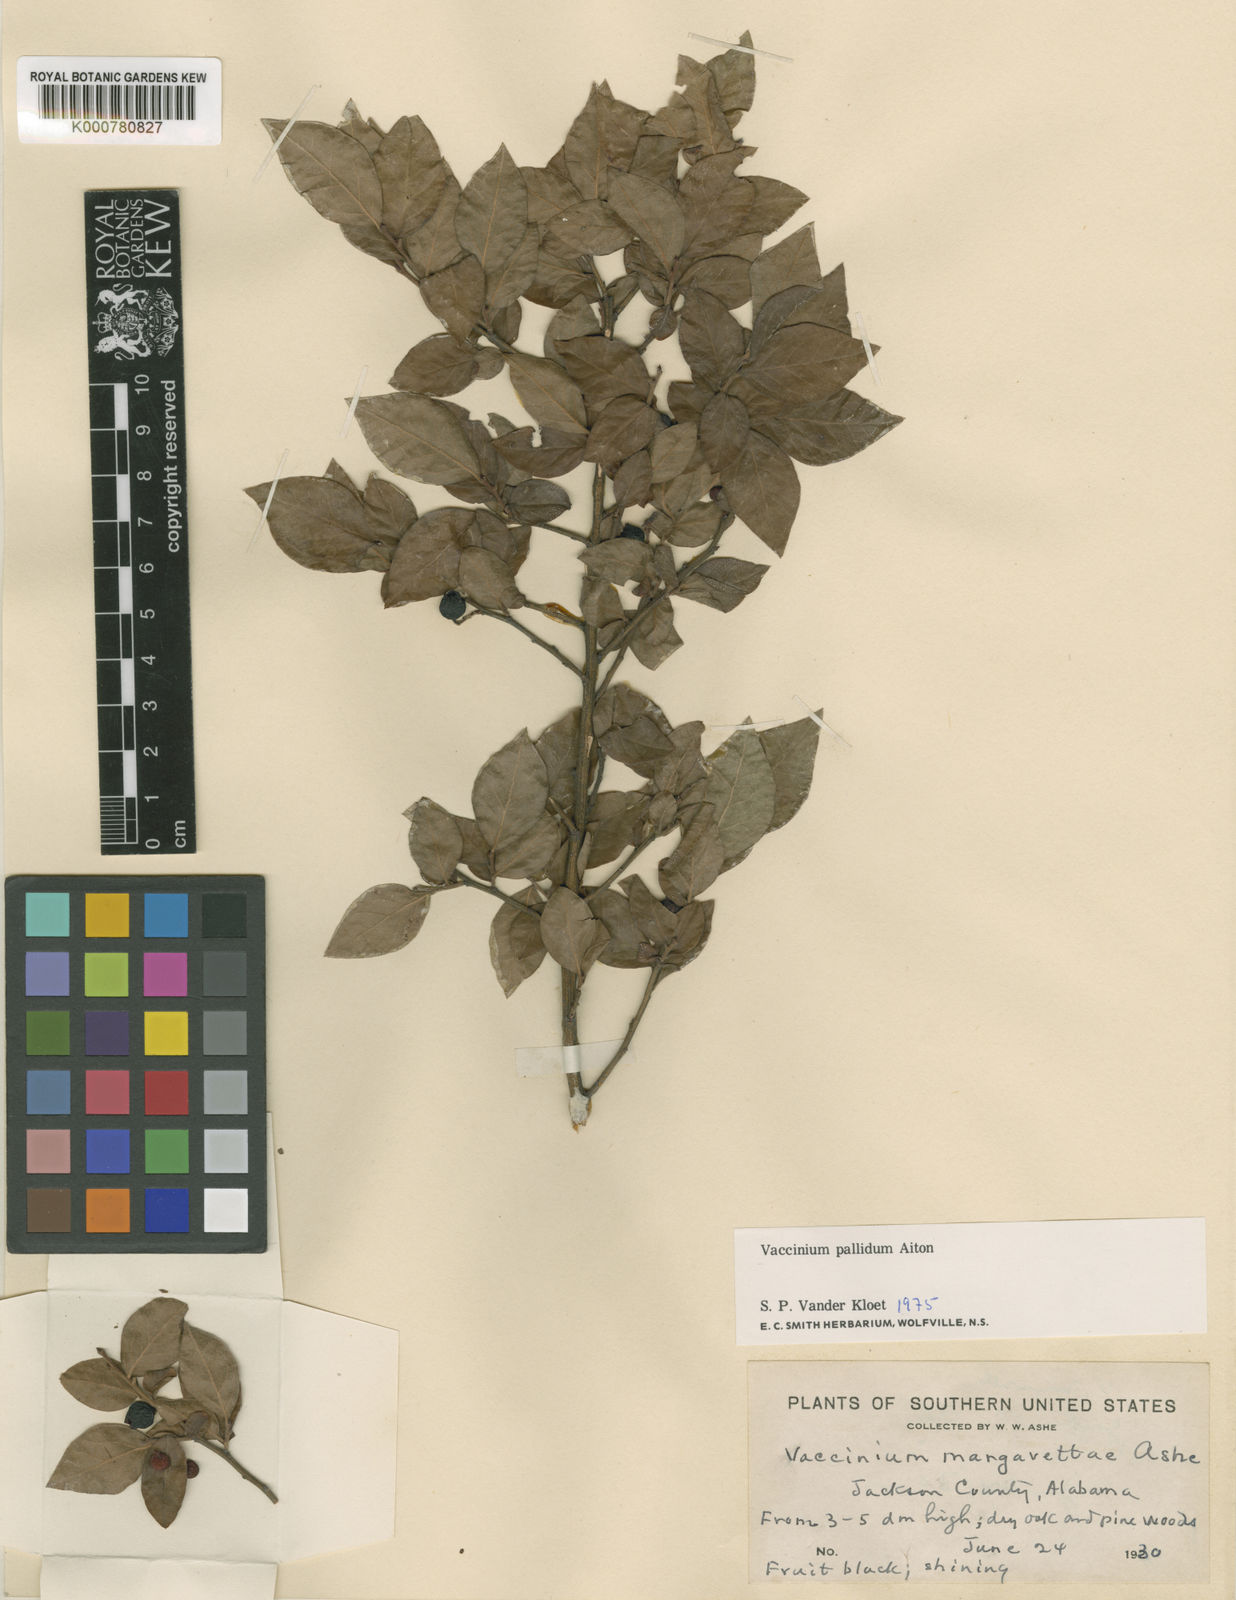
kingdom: Plantae
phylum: Tracheophyta
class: Magnoliopsida
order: Ericales
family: Ericaceae
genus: Vaccinium
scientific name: Vaccinium margarettae
